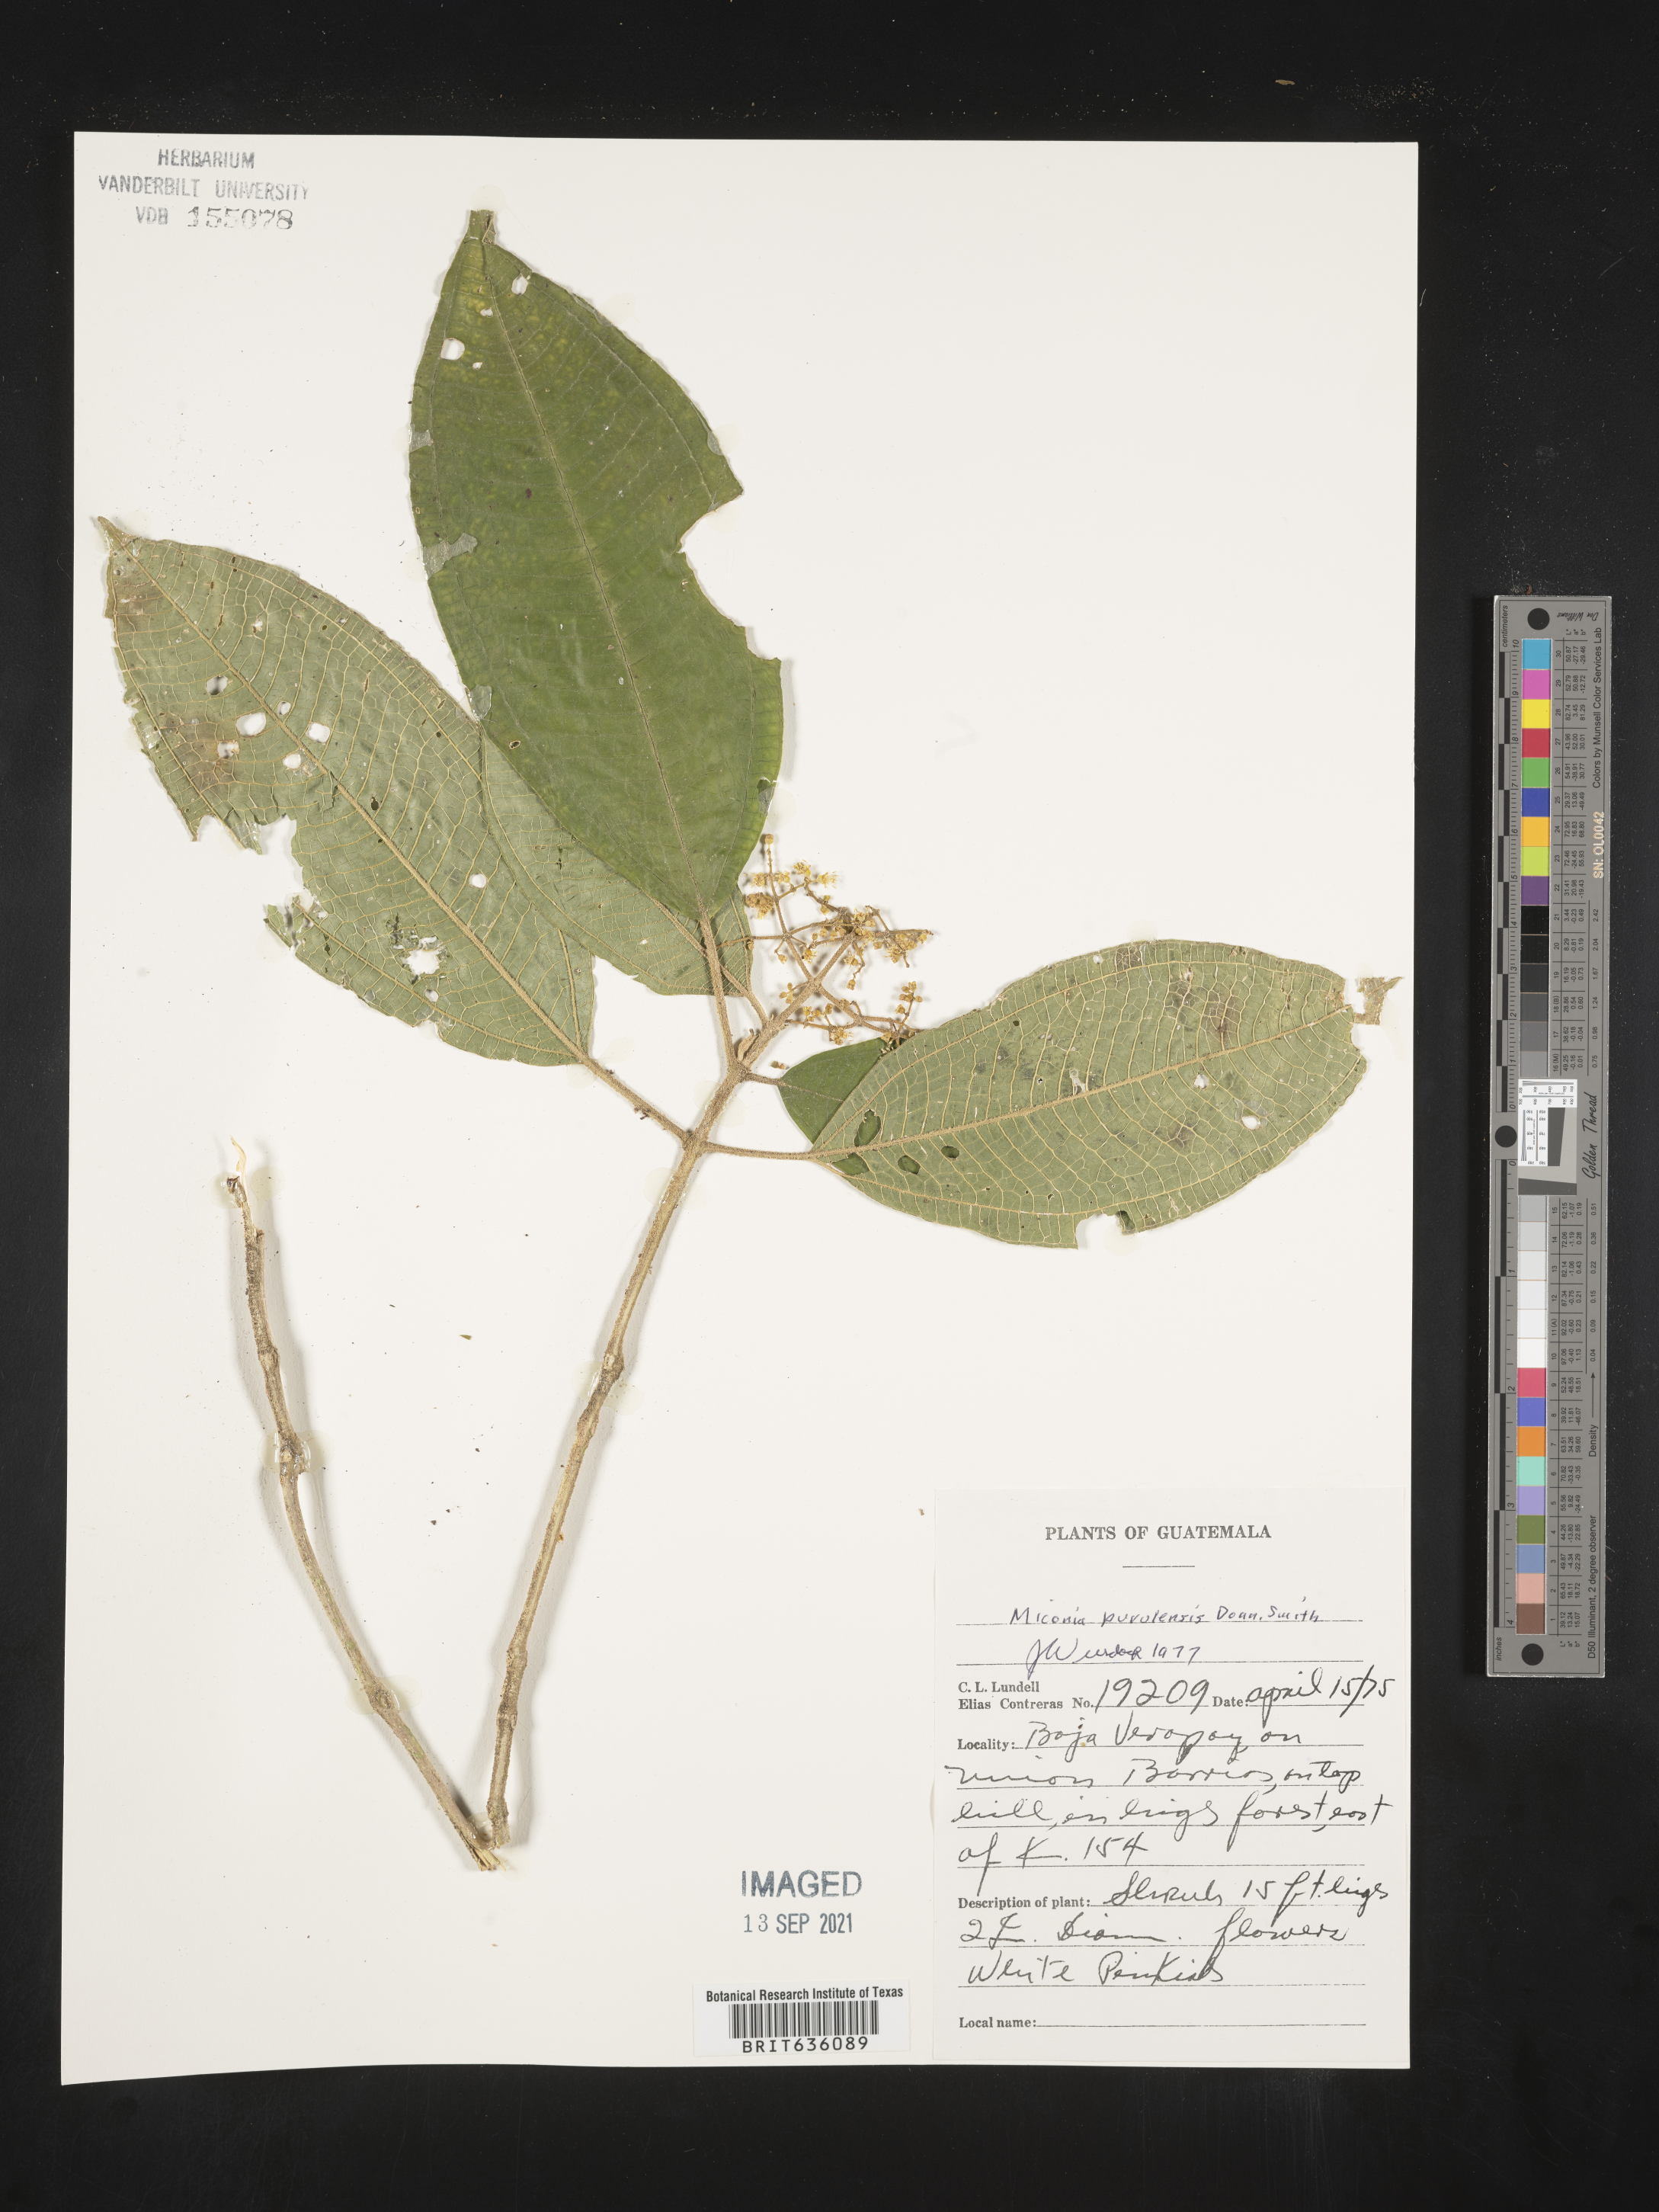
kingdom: Plantae
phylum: Tracheophyta
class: Magnoliopsida
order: Myrtales
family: Melastomataceae
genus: Miconia
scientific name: Miconia
